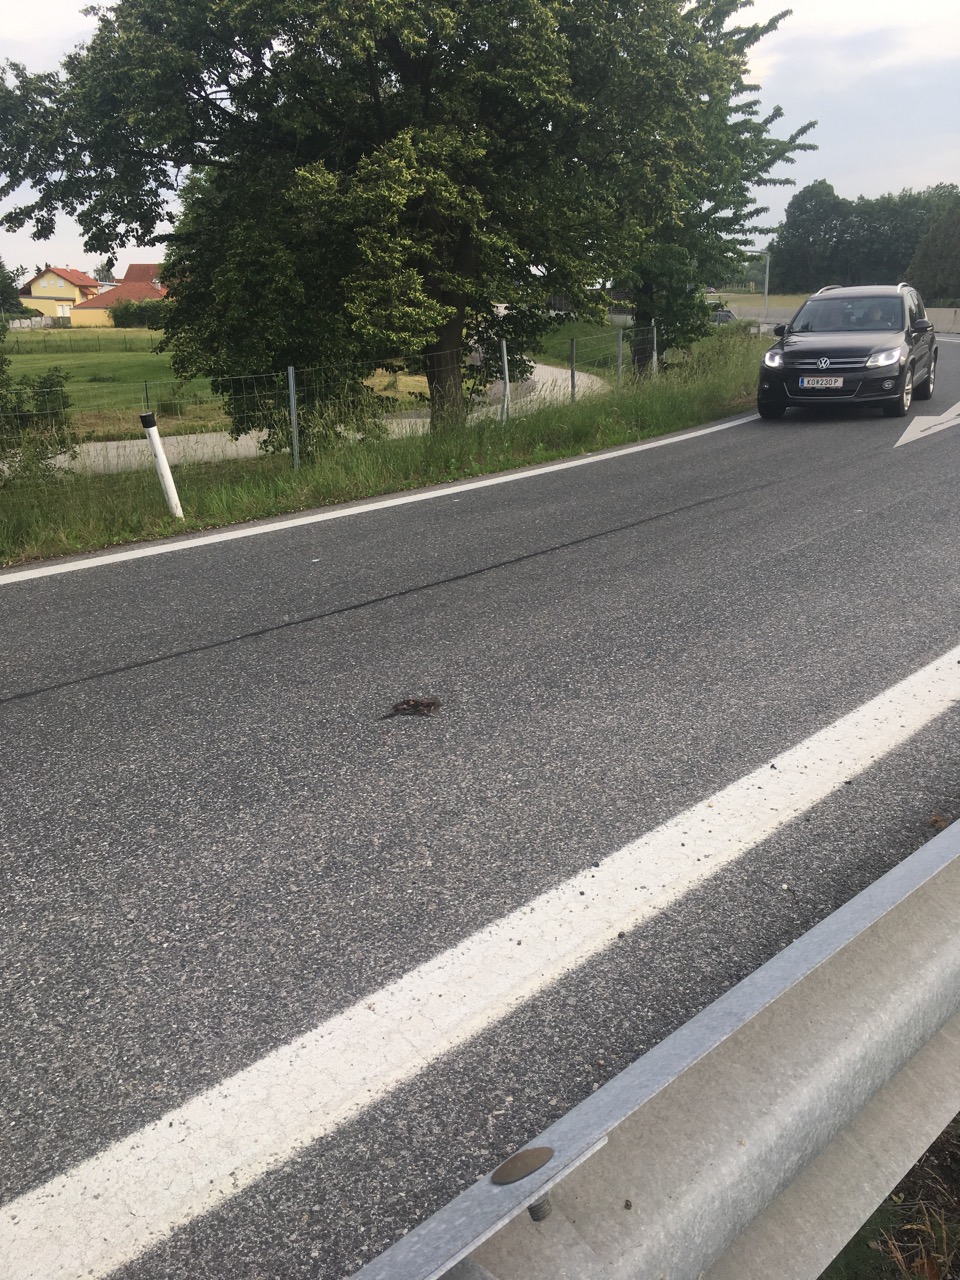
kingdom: Animalia
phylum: Chordata
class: Aves
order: Passeriformes
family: Turdidae
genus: Turdus
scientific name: Turdus merula
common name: Common blackbird
